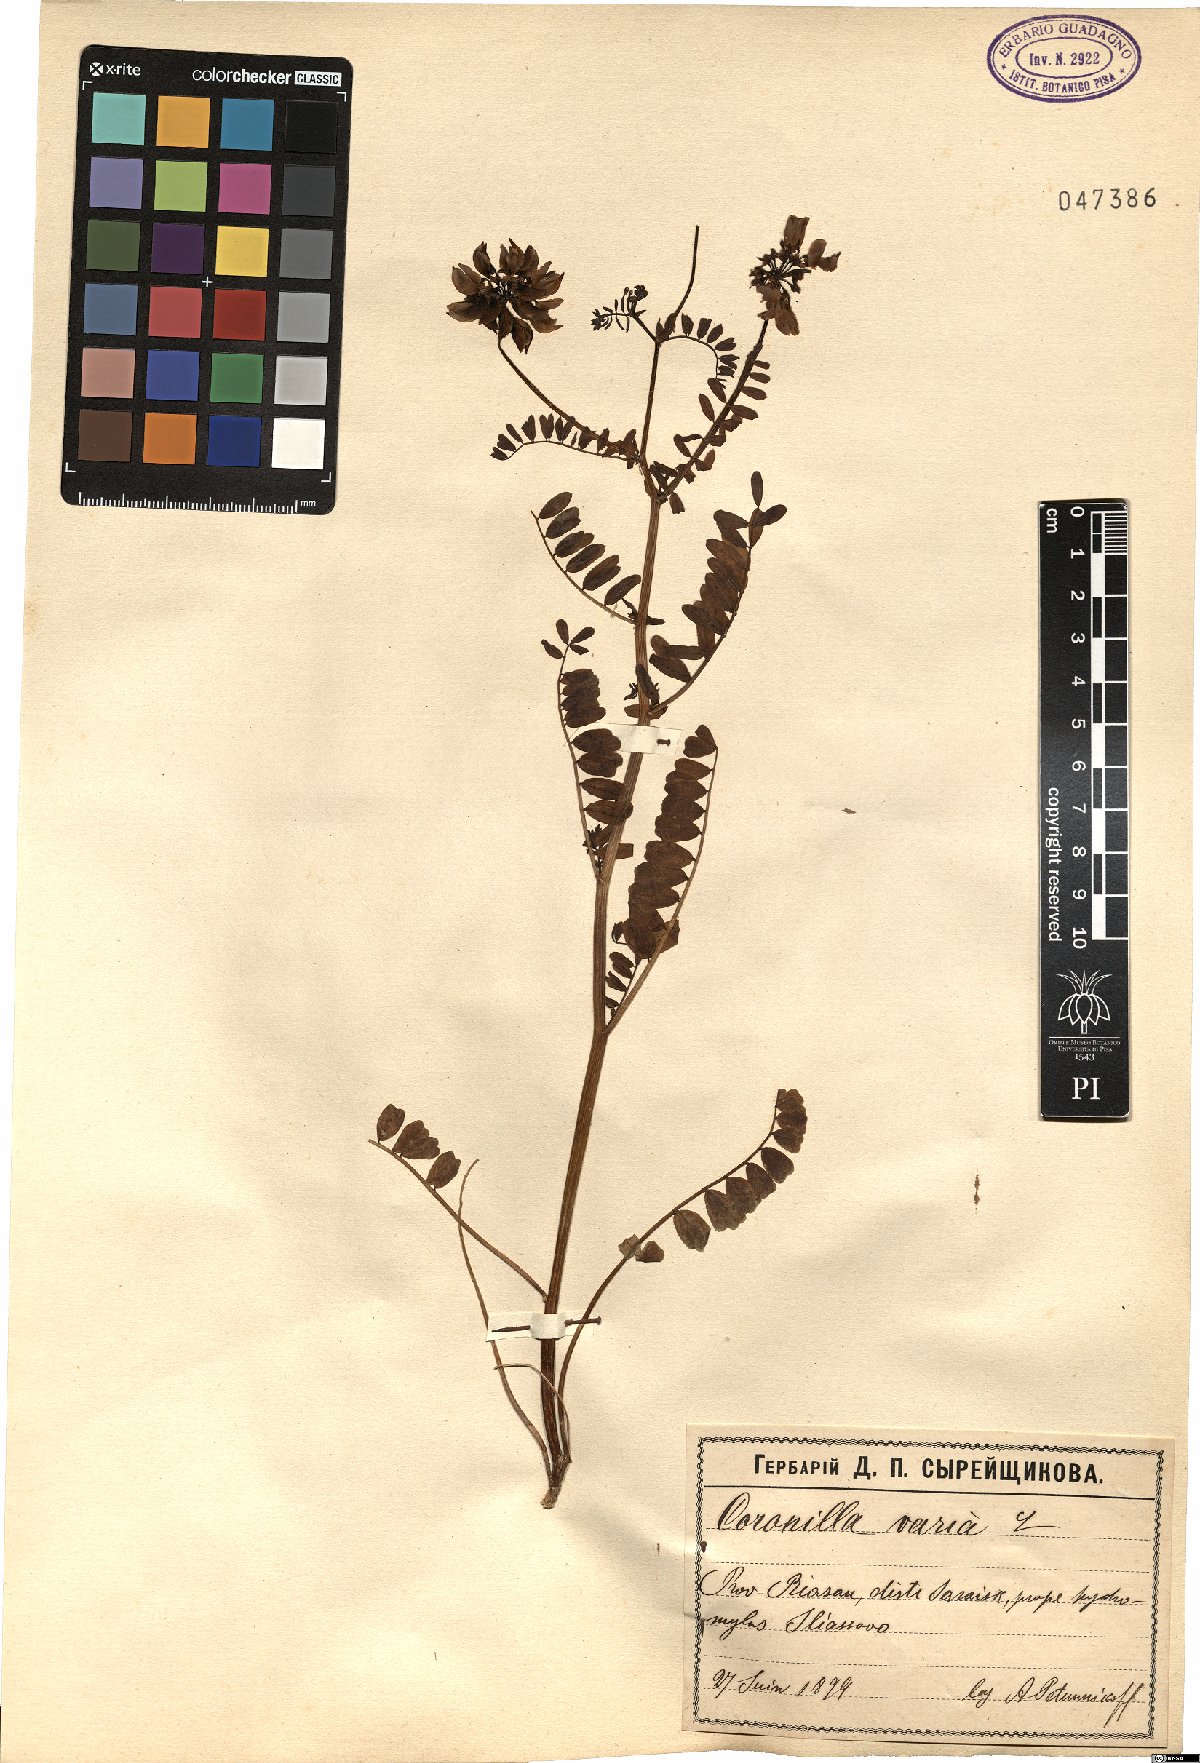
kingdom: Plantae
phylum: Tracheophyta
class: Magnoliopsida
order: Fabales
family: Fabaceae
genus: Coronilla
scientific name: Coronilla varia
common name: Crownvetch
